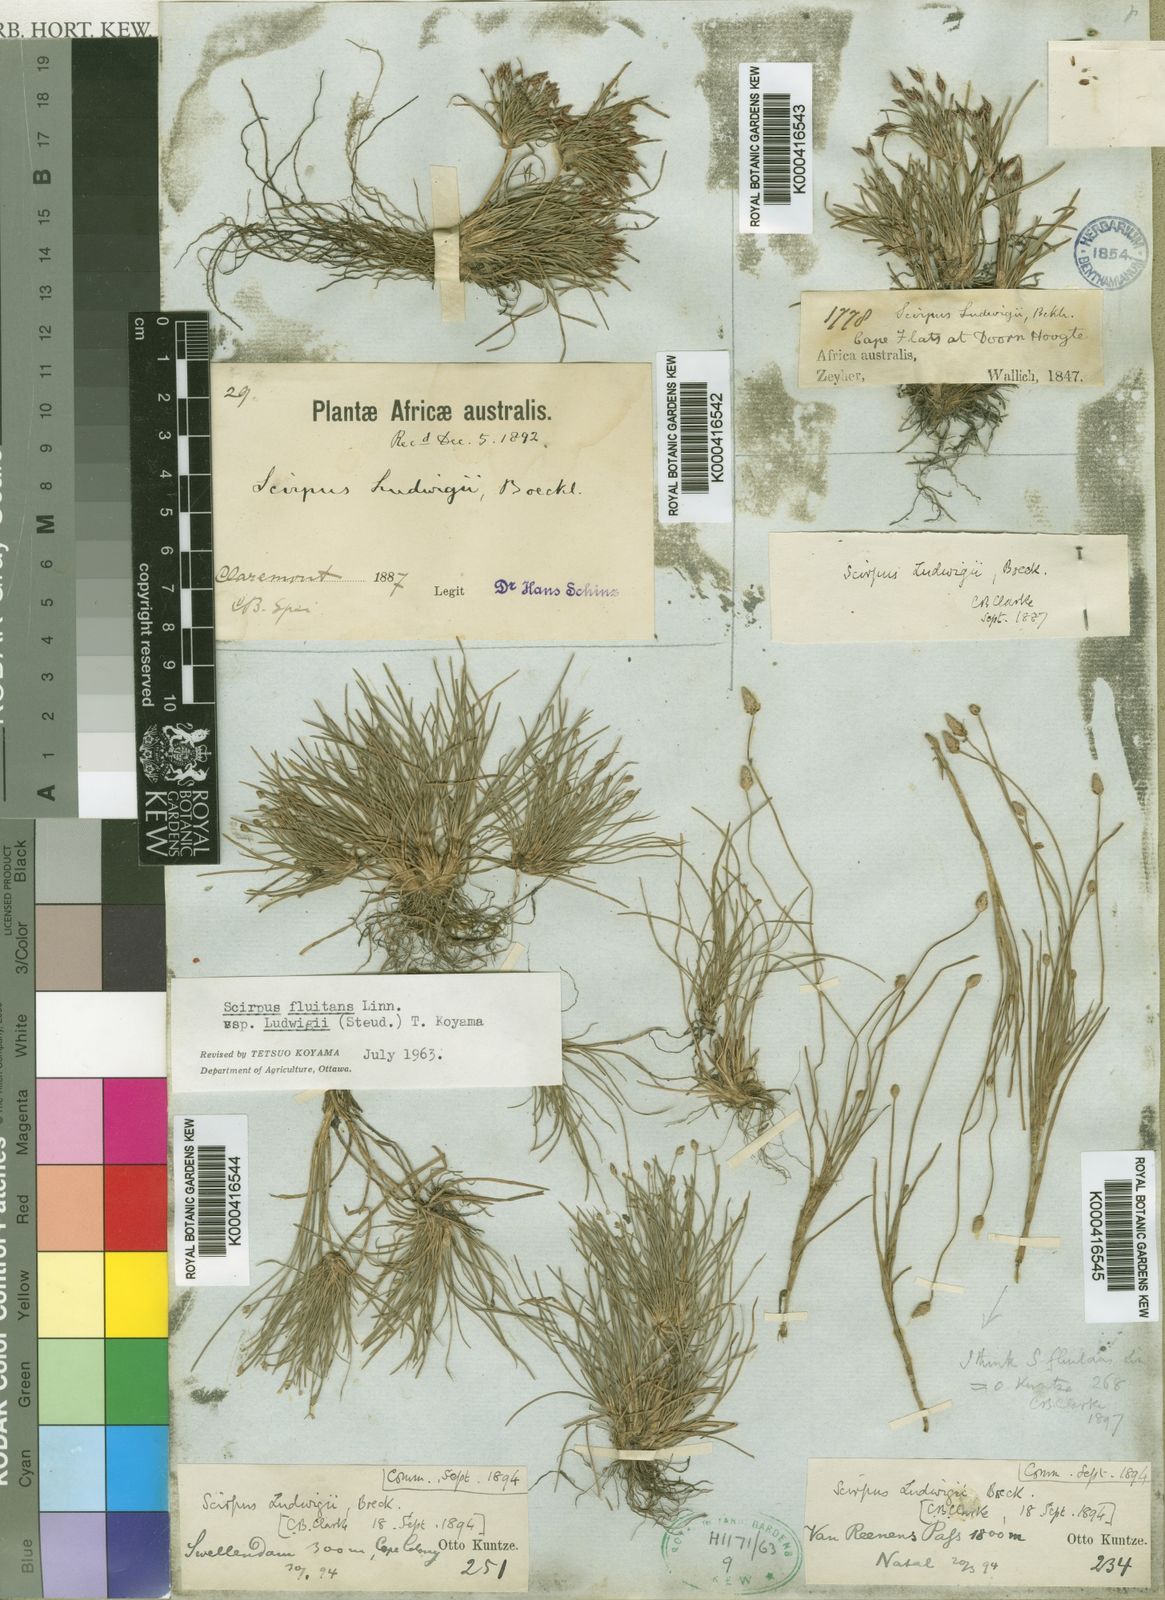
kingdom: Plantae
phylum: Tracheophyta
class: Liliopsida
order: Poales
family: Cyperaceae
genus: Isolepis
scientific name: Isolepis ludwigii
